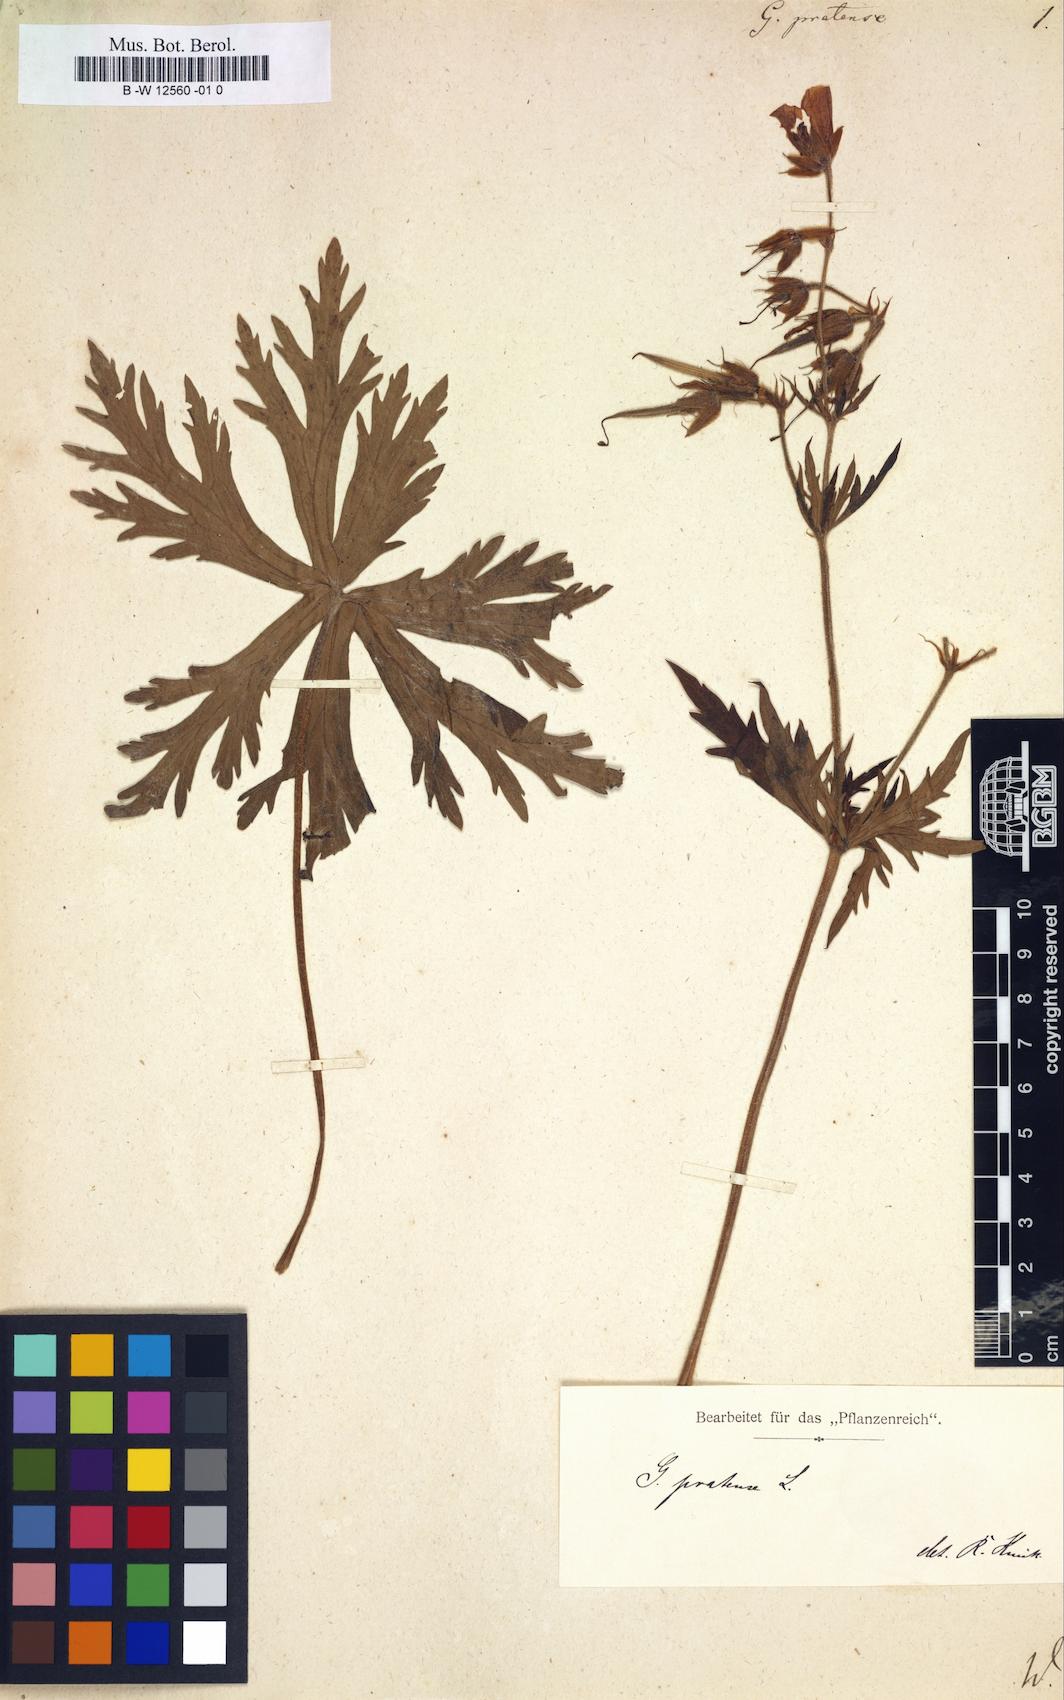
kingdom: Plantae
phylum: Tracheophyta
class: Magnoliopsida
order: Geraniales
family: Geraniaceae
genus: Geranium
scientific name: Geranium pratense
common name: Meadow crane's-bill
